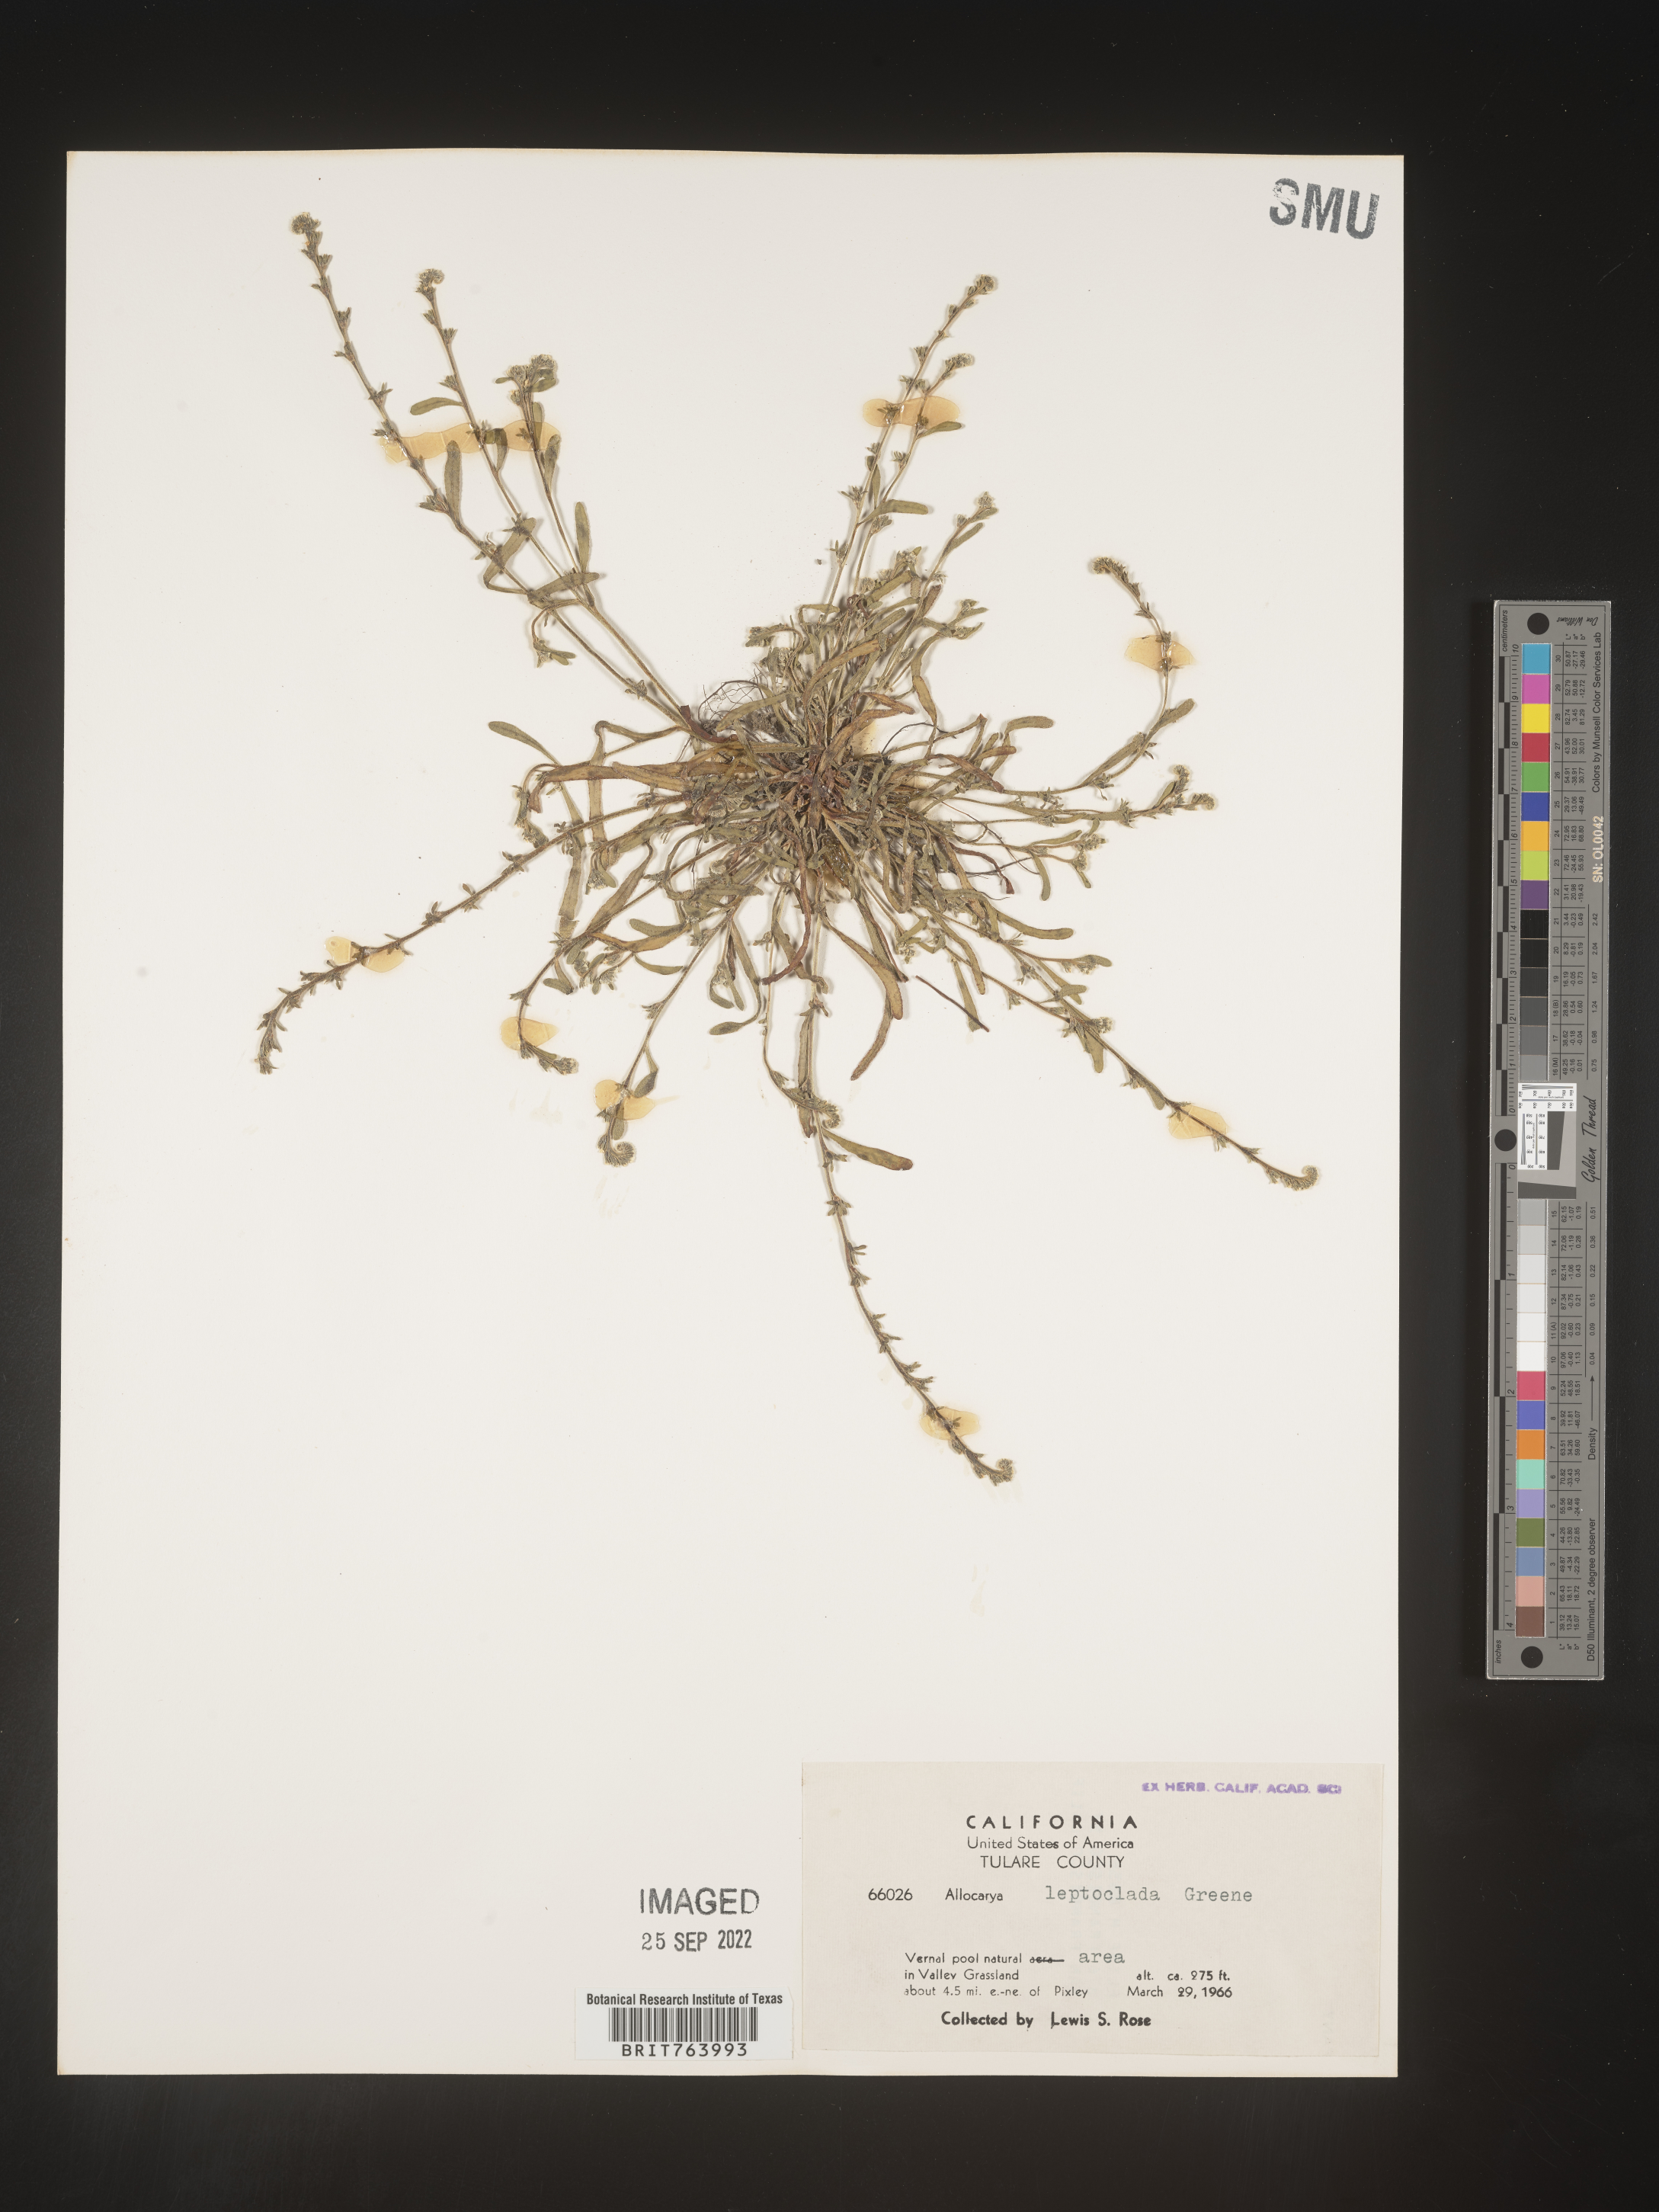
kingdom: Plantae
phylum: Tracheophyta
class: Magnoliopsida
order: Boraginales
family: Boraginaceae
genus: Plagiobothrys
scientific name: Plagiobothrys
